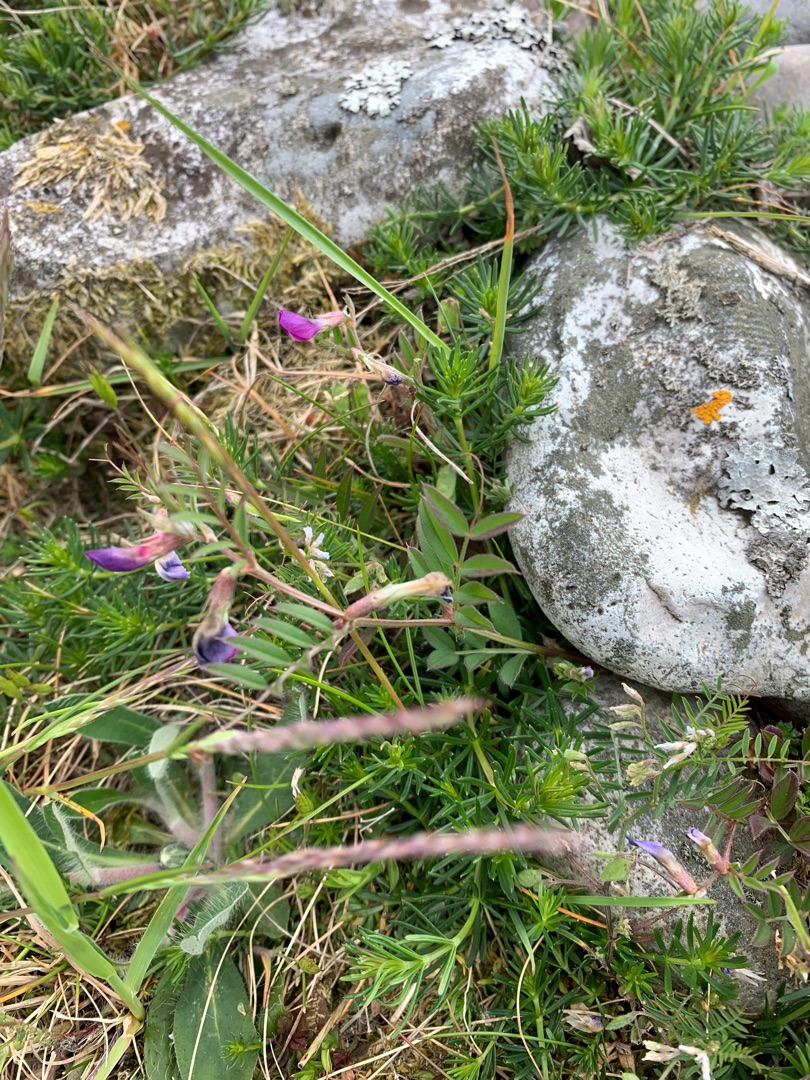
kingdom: Plantae
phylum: Tracheophyta
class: Magnoliopsida
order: Fabales
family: Fabaceae
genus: Vicia
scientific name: Vicia sativa
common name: Foder-vikke
